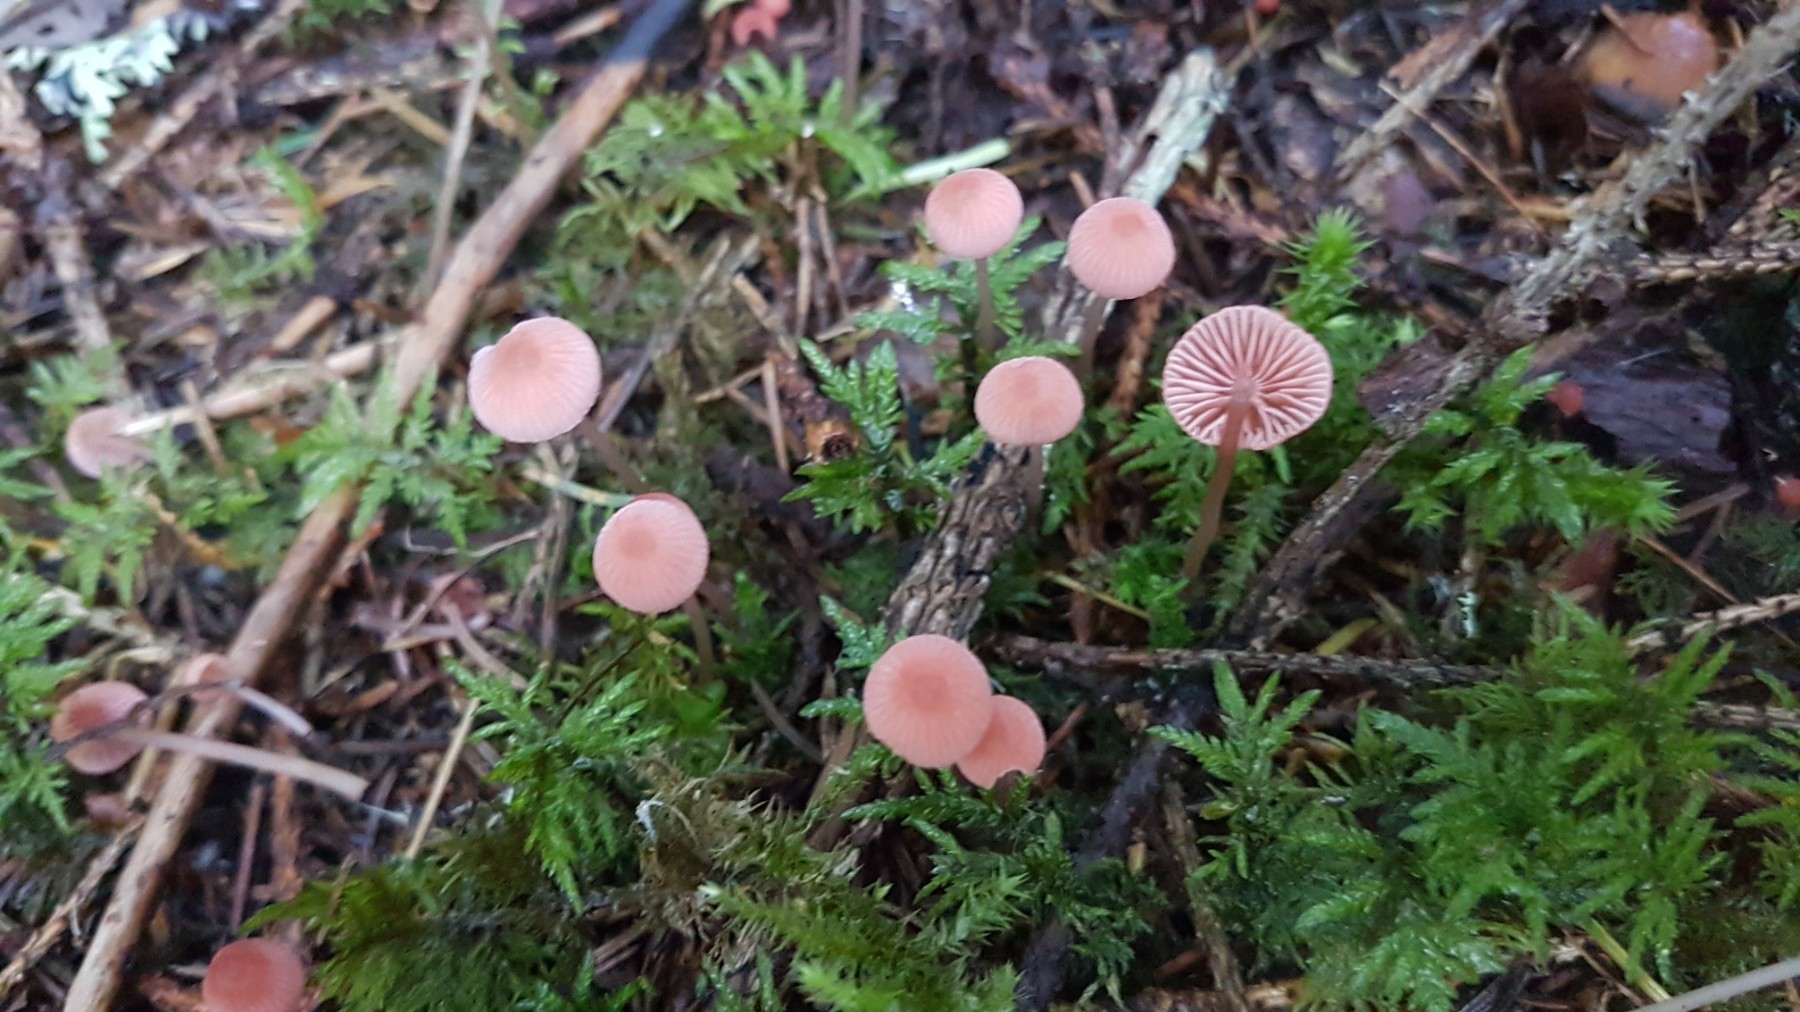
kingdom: Fungi
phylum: Basidiomycota
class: Agaricomycetes
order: Agaricales
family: Mycenaceae
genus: Mycena
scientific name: Mycena rosella
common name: rosenrød huesvamp
